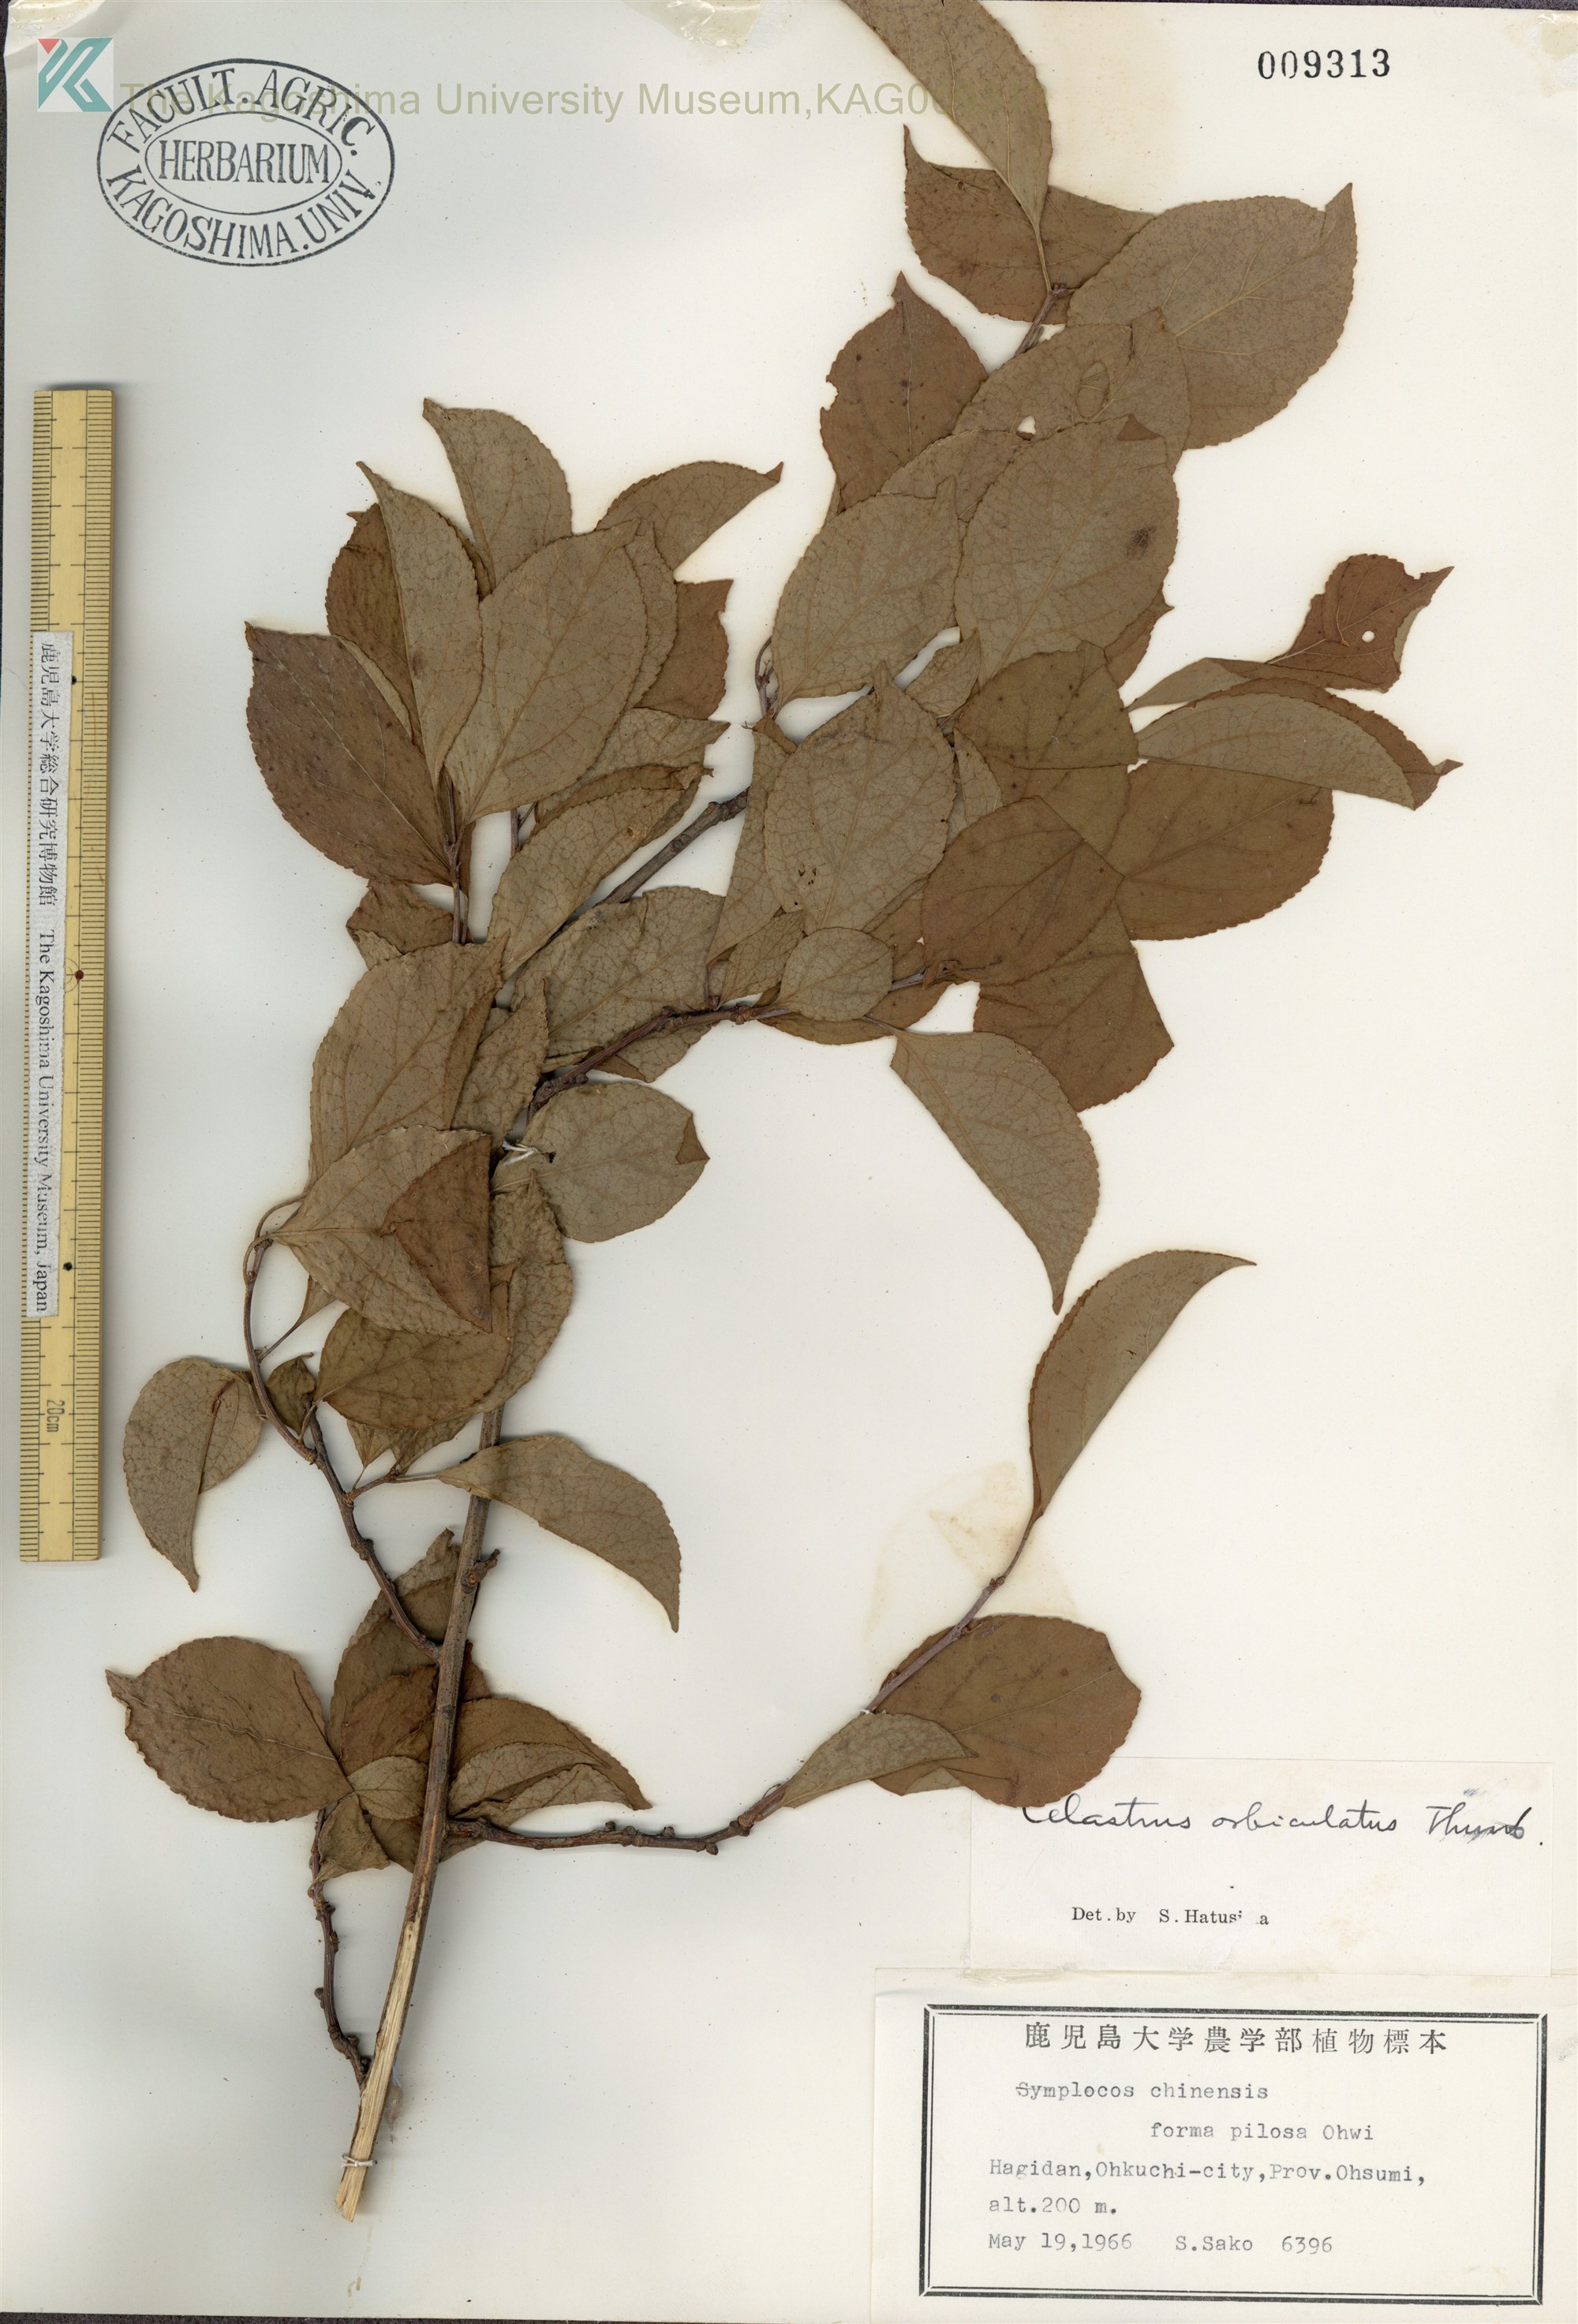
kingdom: Plantae
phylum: Tracheophyta
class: Magnoliopsida
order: Celastrales
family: Celastraceae
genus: Celastrus
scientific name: Celastrus punctatus
